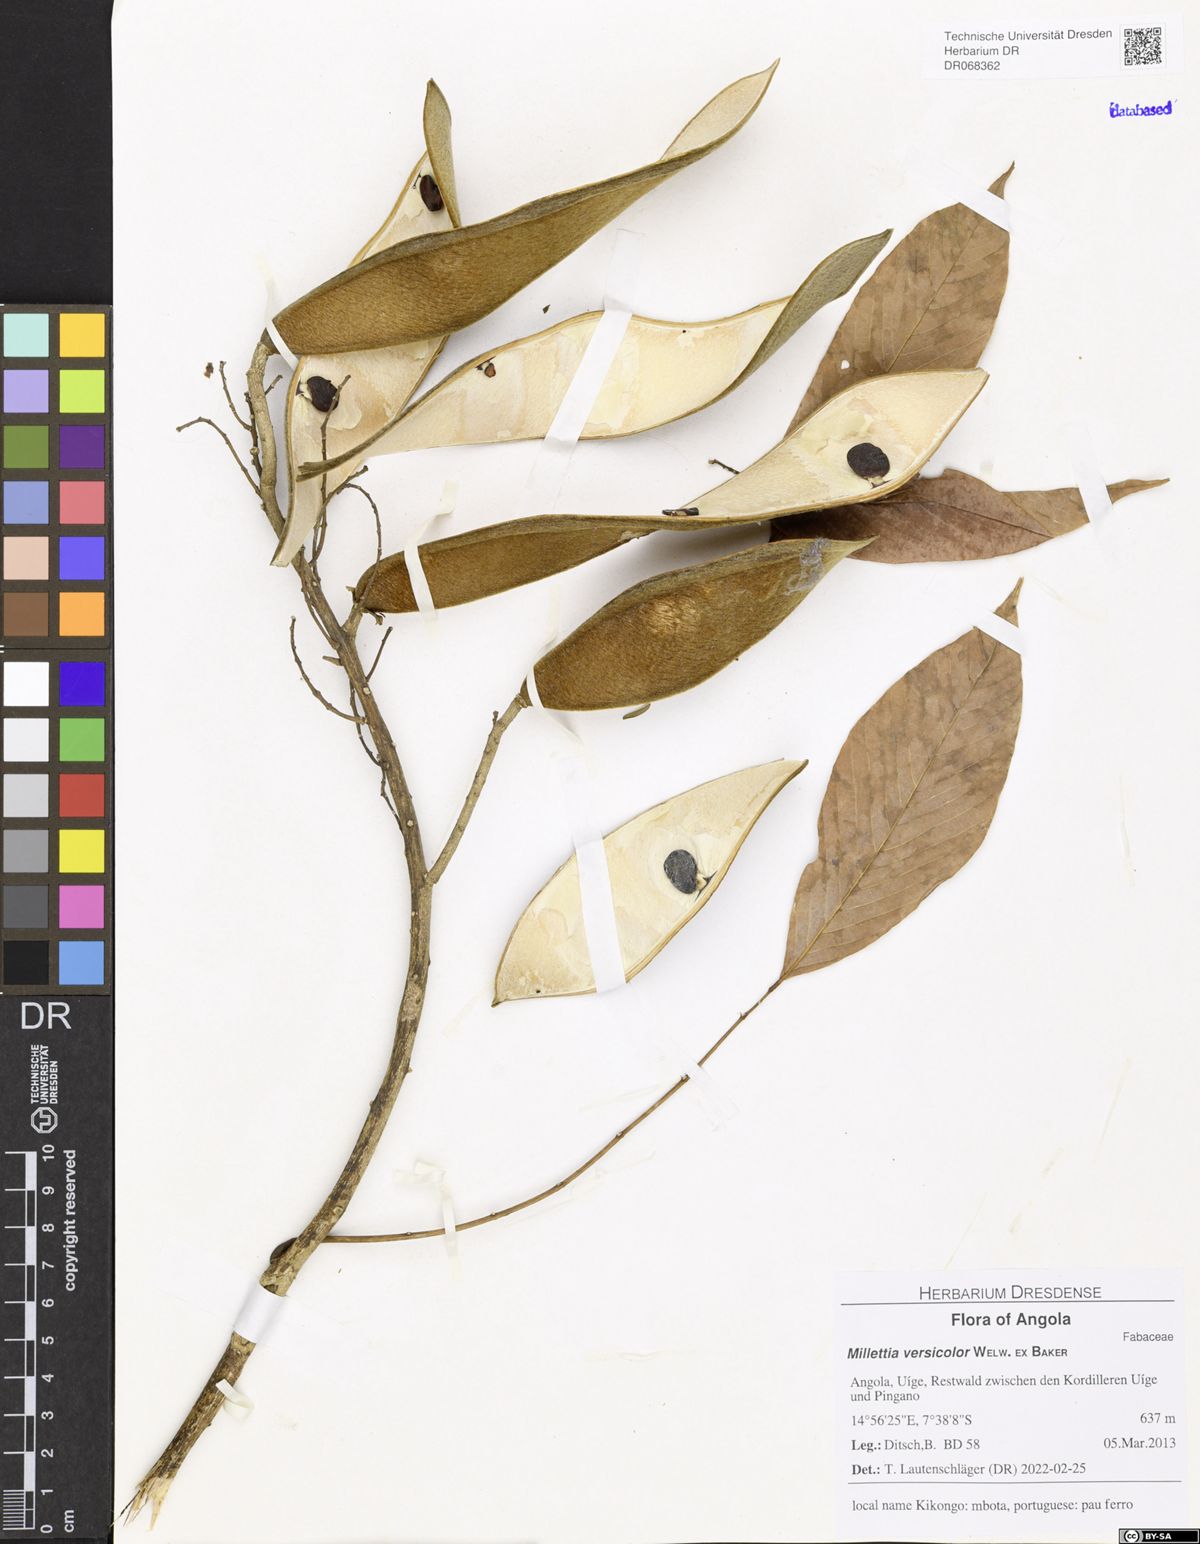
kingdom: Plantae
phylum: Tracheophyta
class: Magnoliopsida
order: Fabales
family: Fabaceae
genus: Millettia
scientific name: Millettia versicolor
